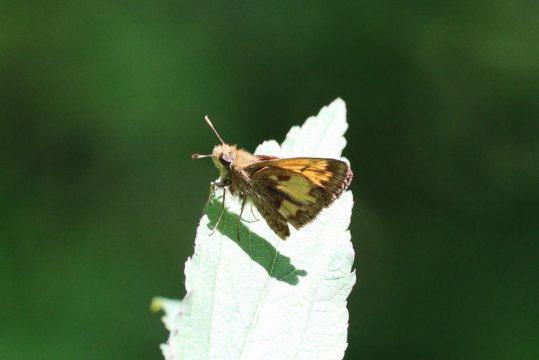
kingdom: Animalia
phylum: Arthropoda
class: Insecta
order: Lepidoptera
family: Hesperiidae
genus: Lon
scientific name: Lon hobomok
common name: Hobomok Skipper
